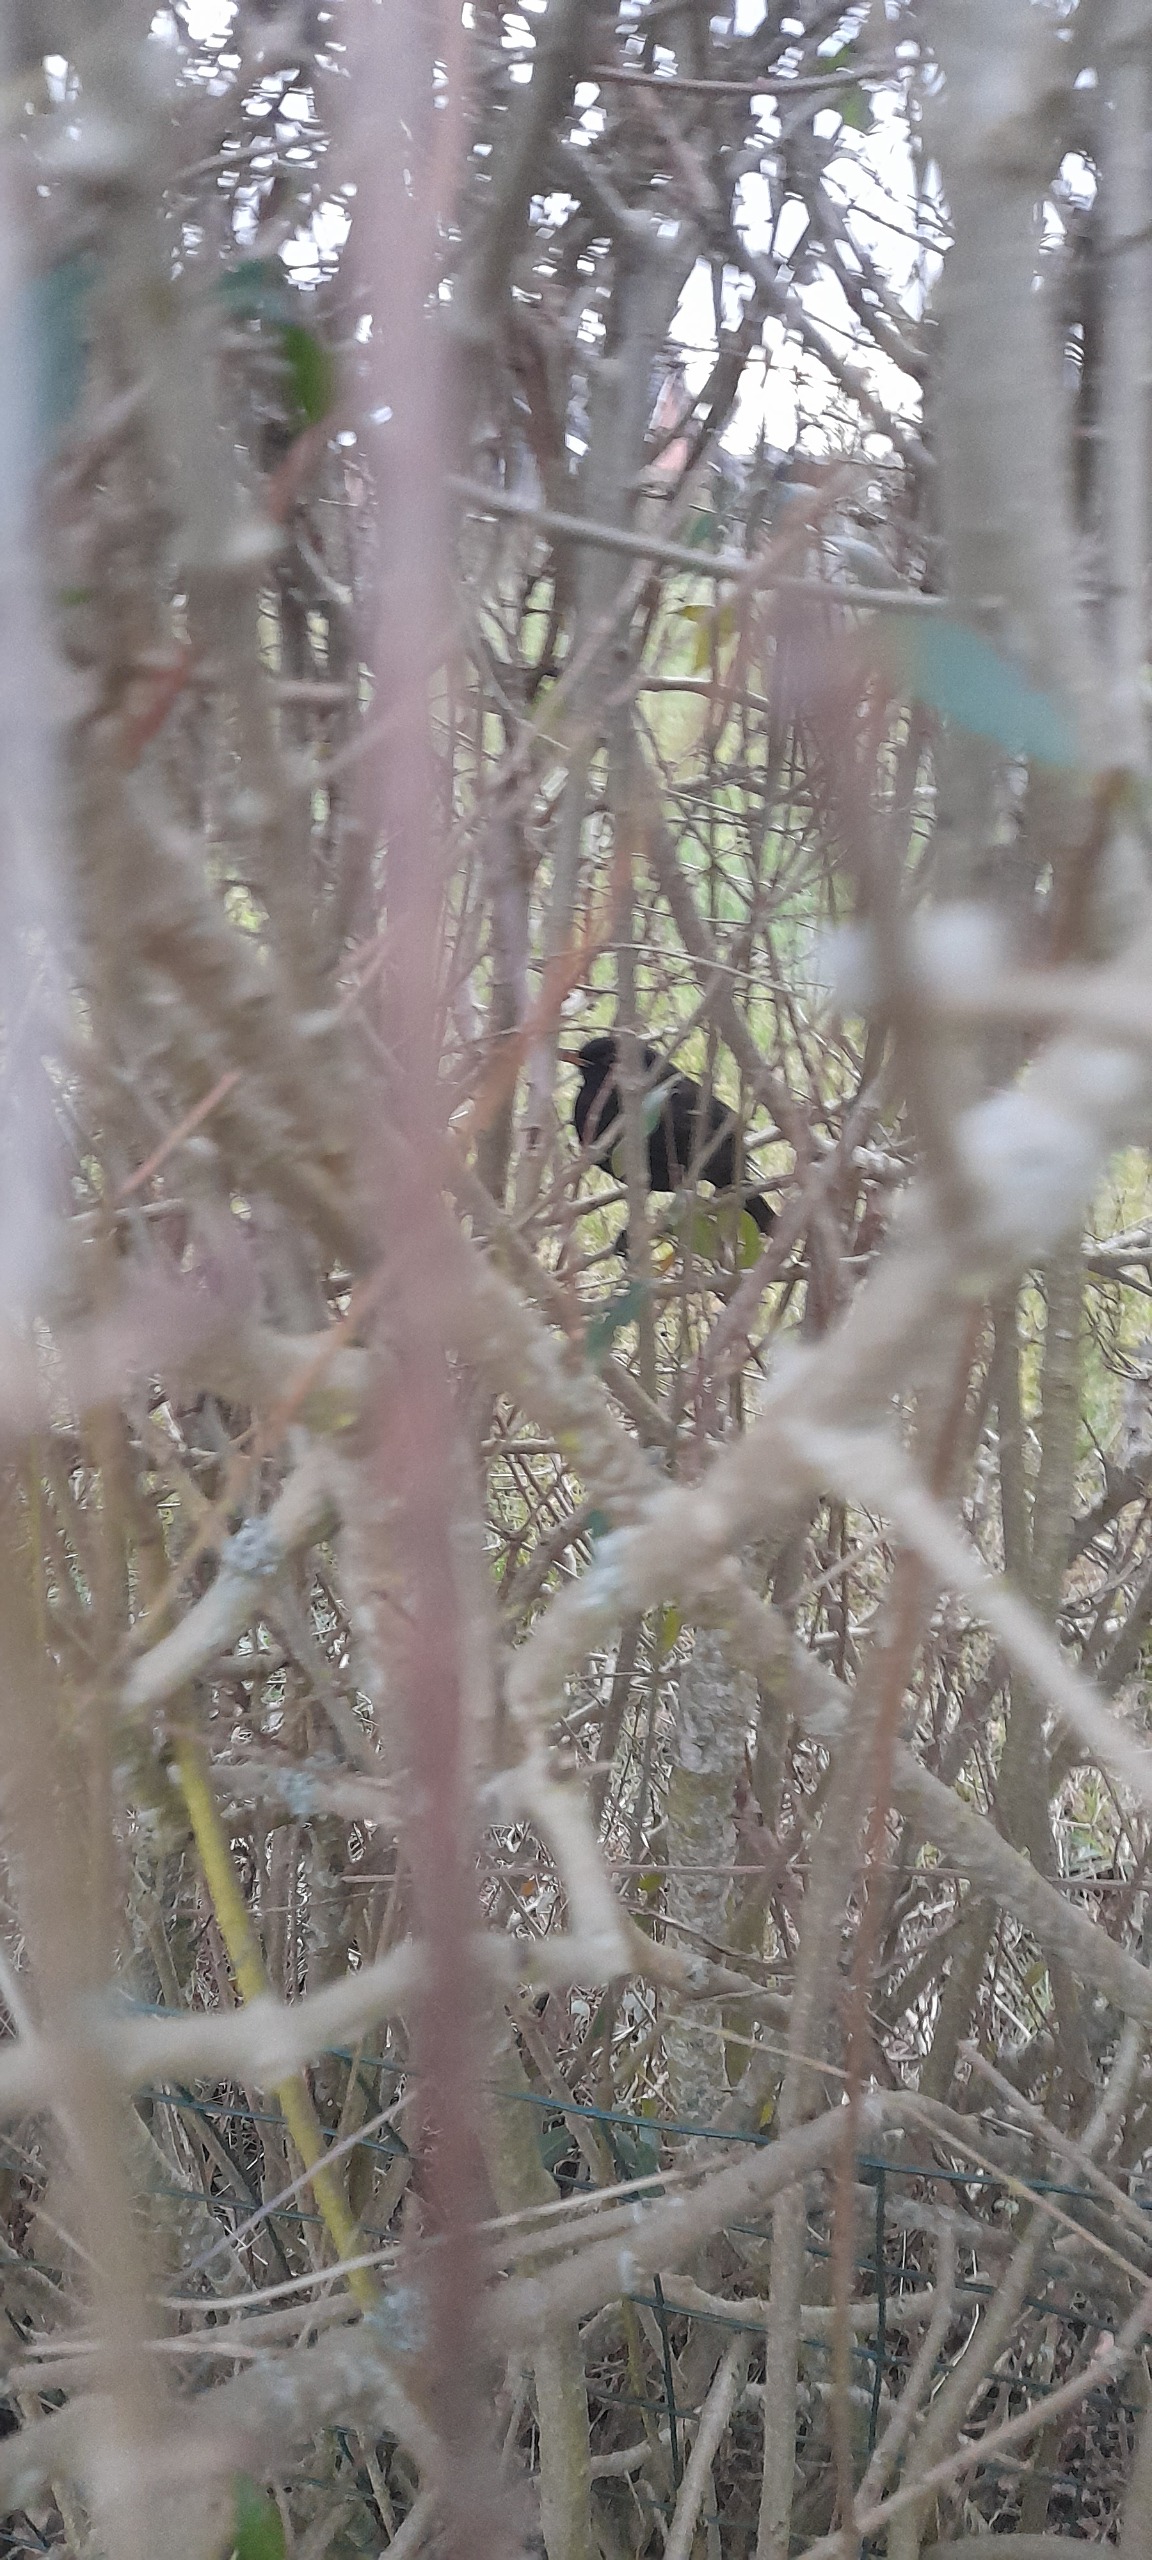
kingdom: Animalia
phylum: Chordata
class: Aves
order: Passeriformes
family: Turdidae
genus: Turdus
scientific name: Turdus merula
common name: Solsort
